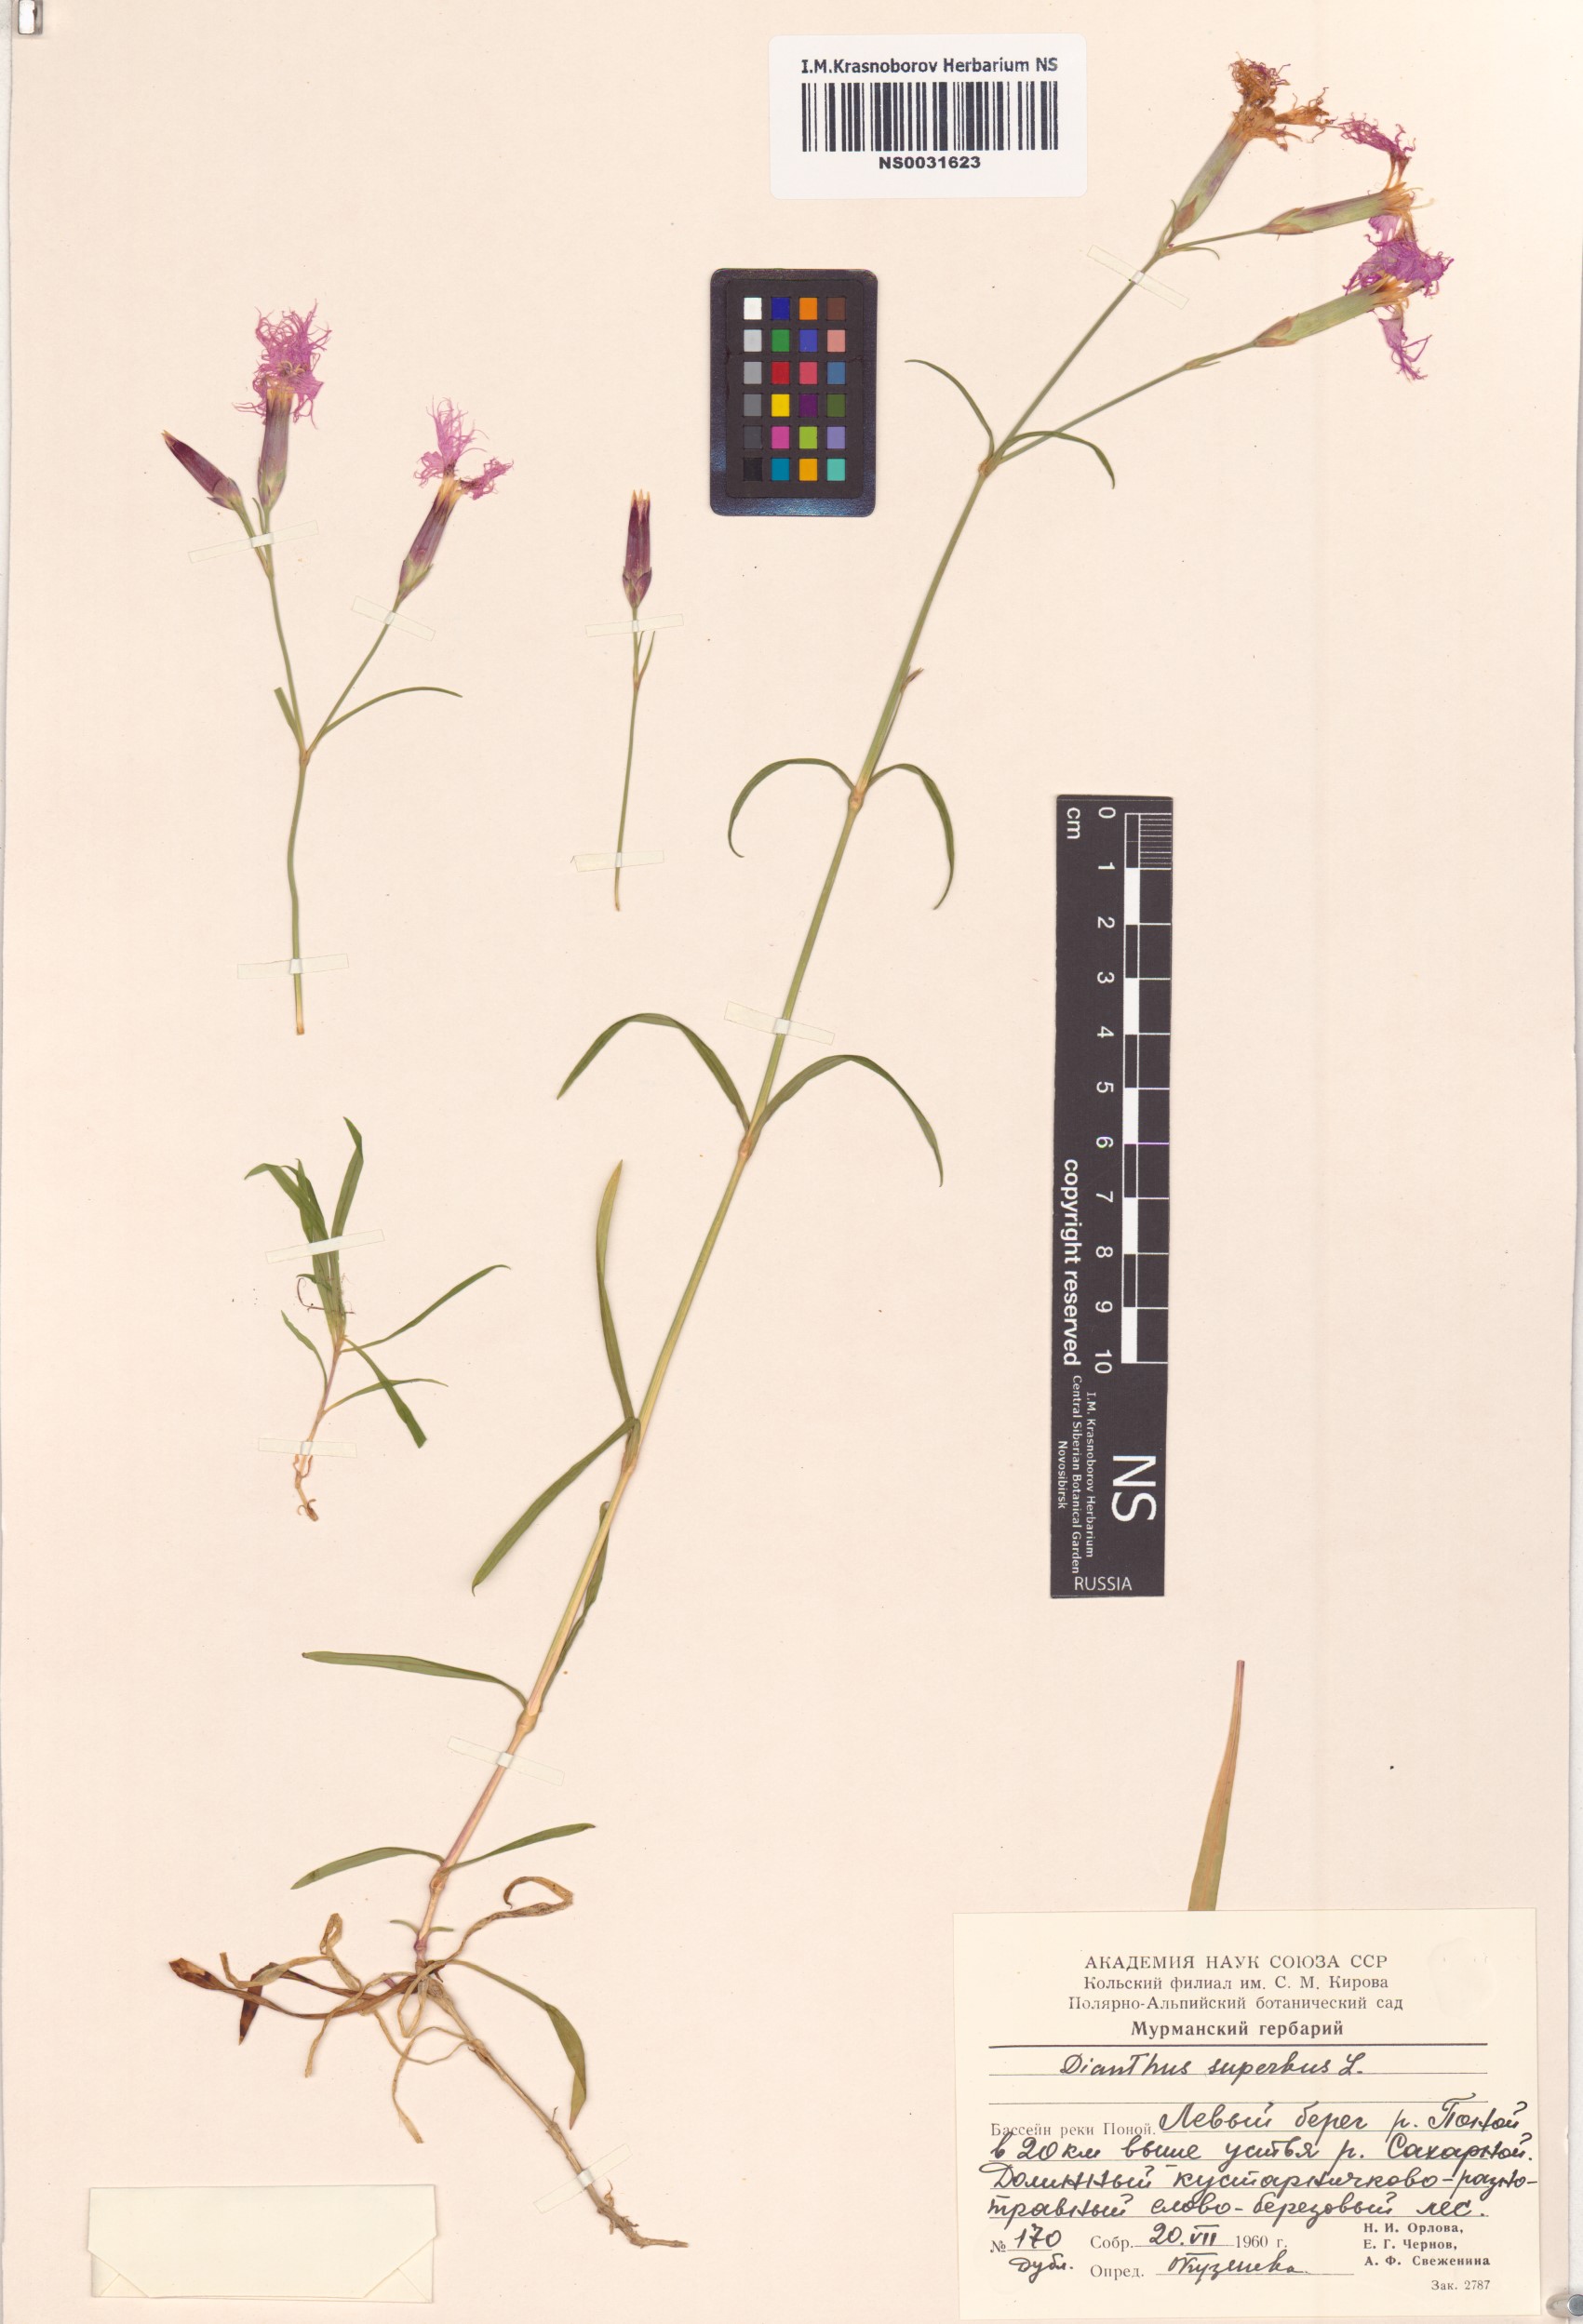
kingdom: Plantae
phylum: Tracheophyta
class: Magnoliopsida
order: Caryophyllales
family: Caryophyllaceae
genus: Dianthus
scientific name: Dianthus superbus
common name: Fringed pink
